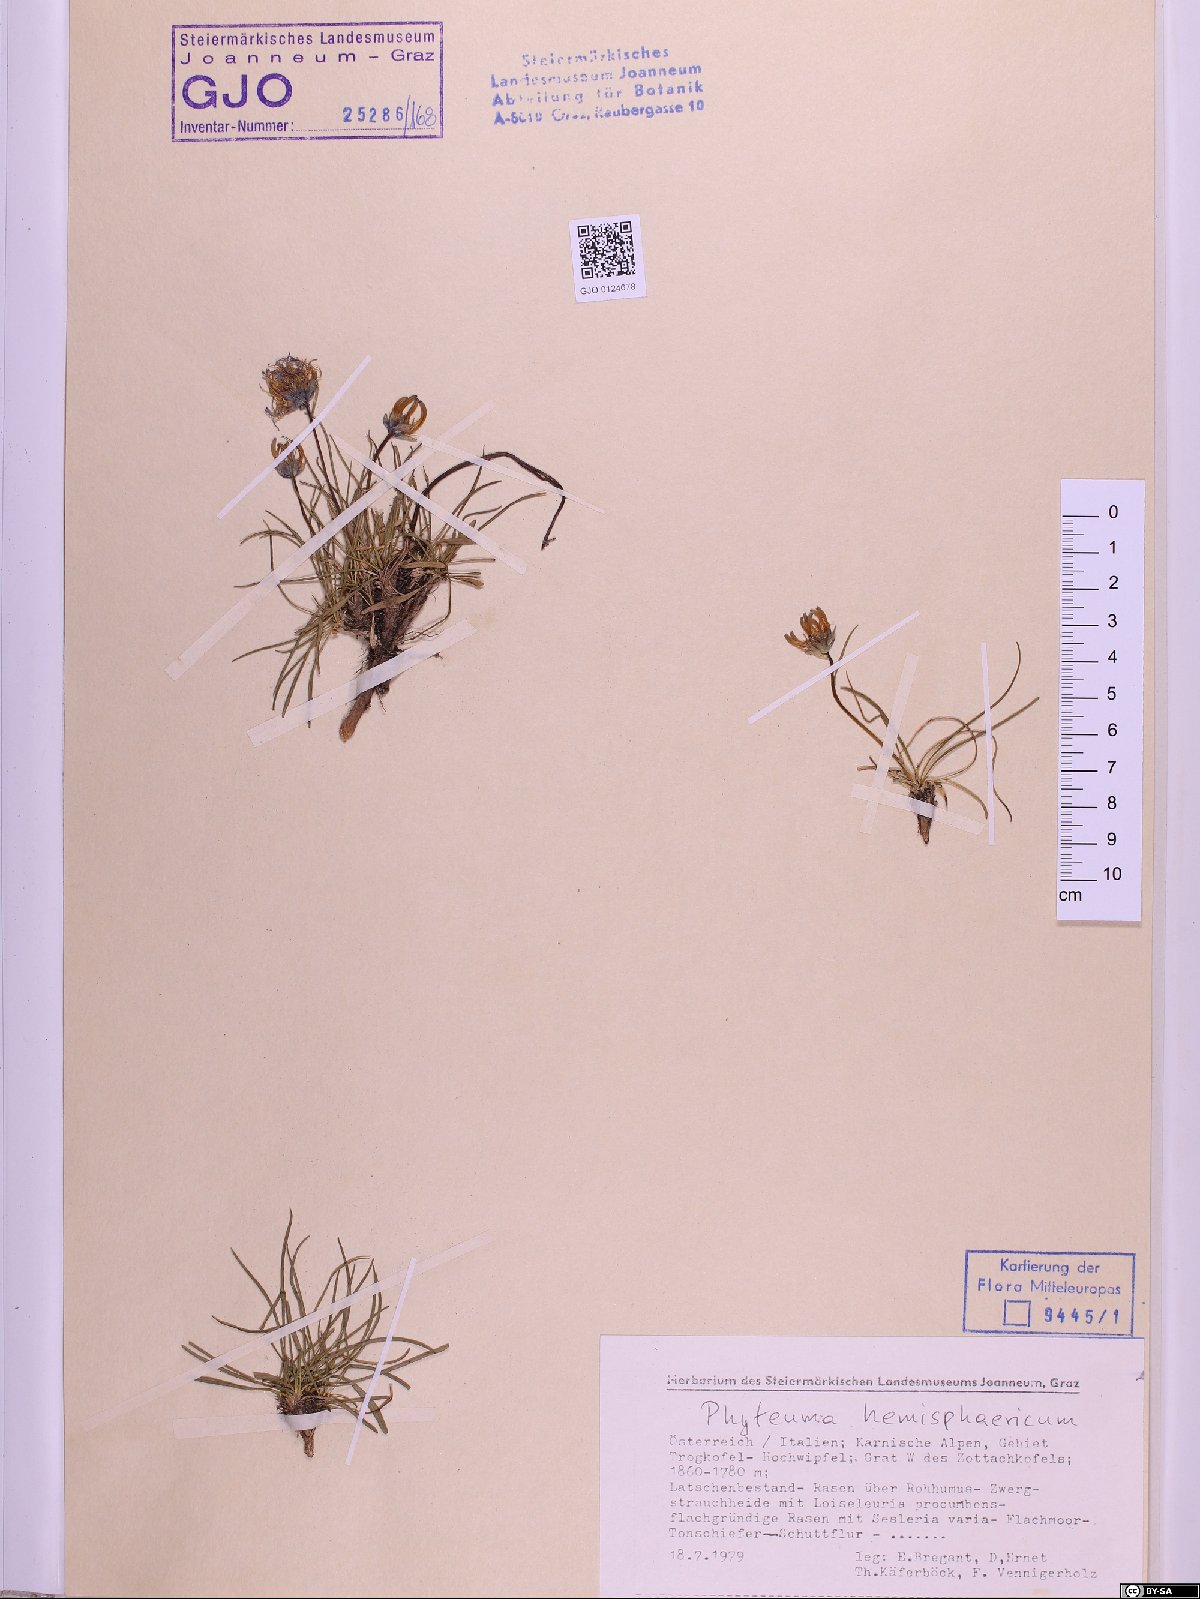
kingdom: Plantae
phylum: Tracheophyta
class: Magnoliopsida
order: Asterales
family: Campanulaceae
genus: Phyteuma
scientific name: Phyteuma hemisphaericum
